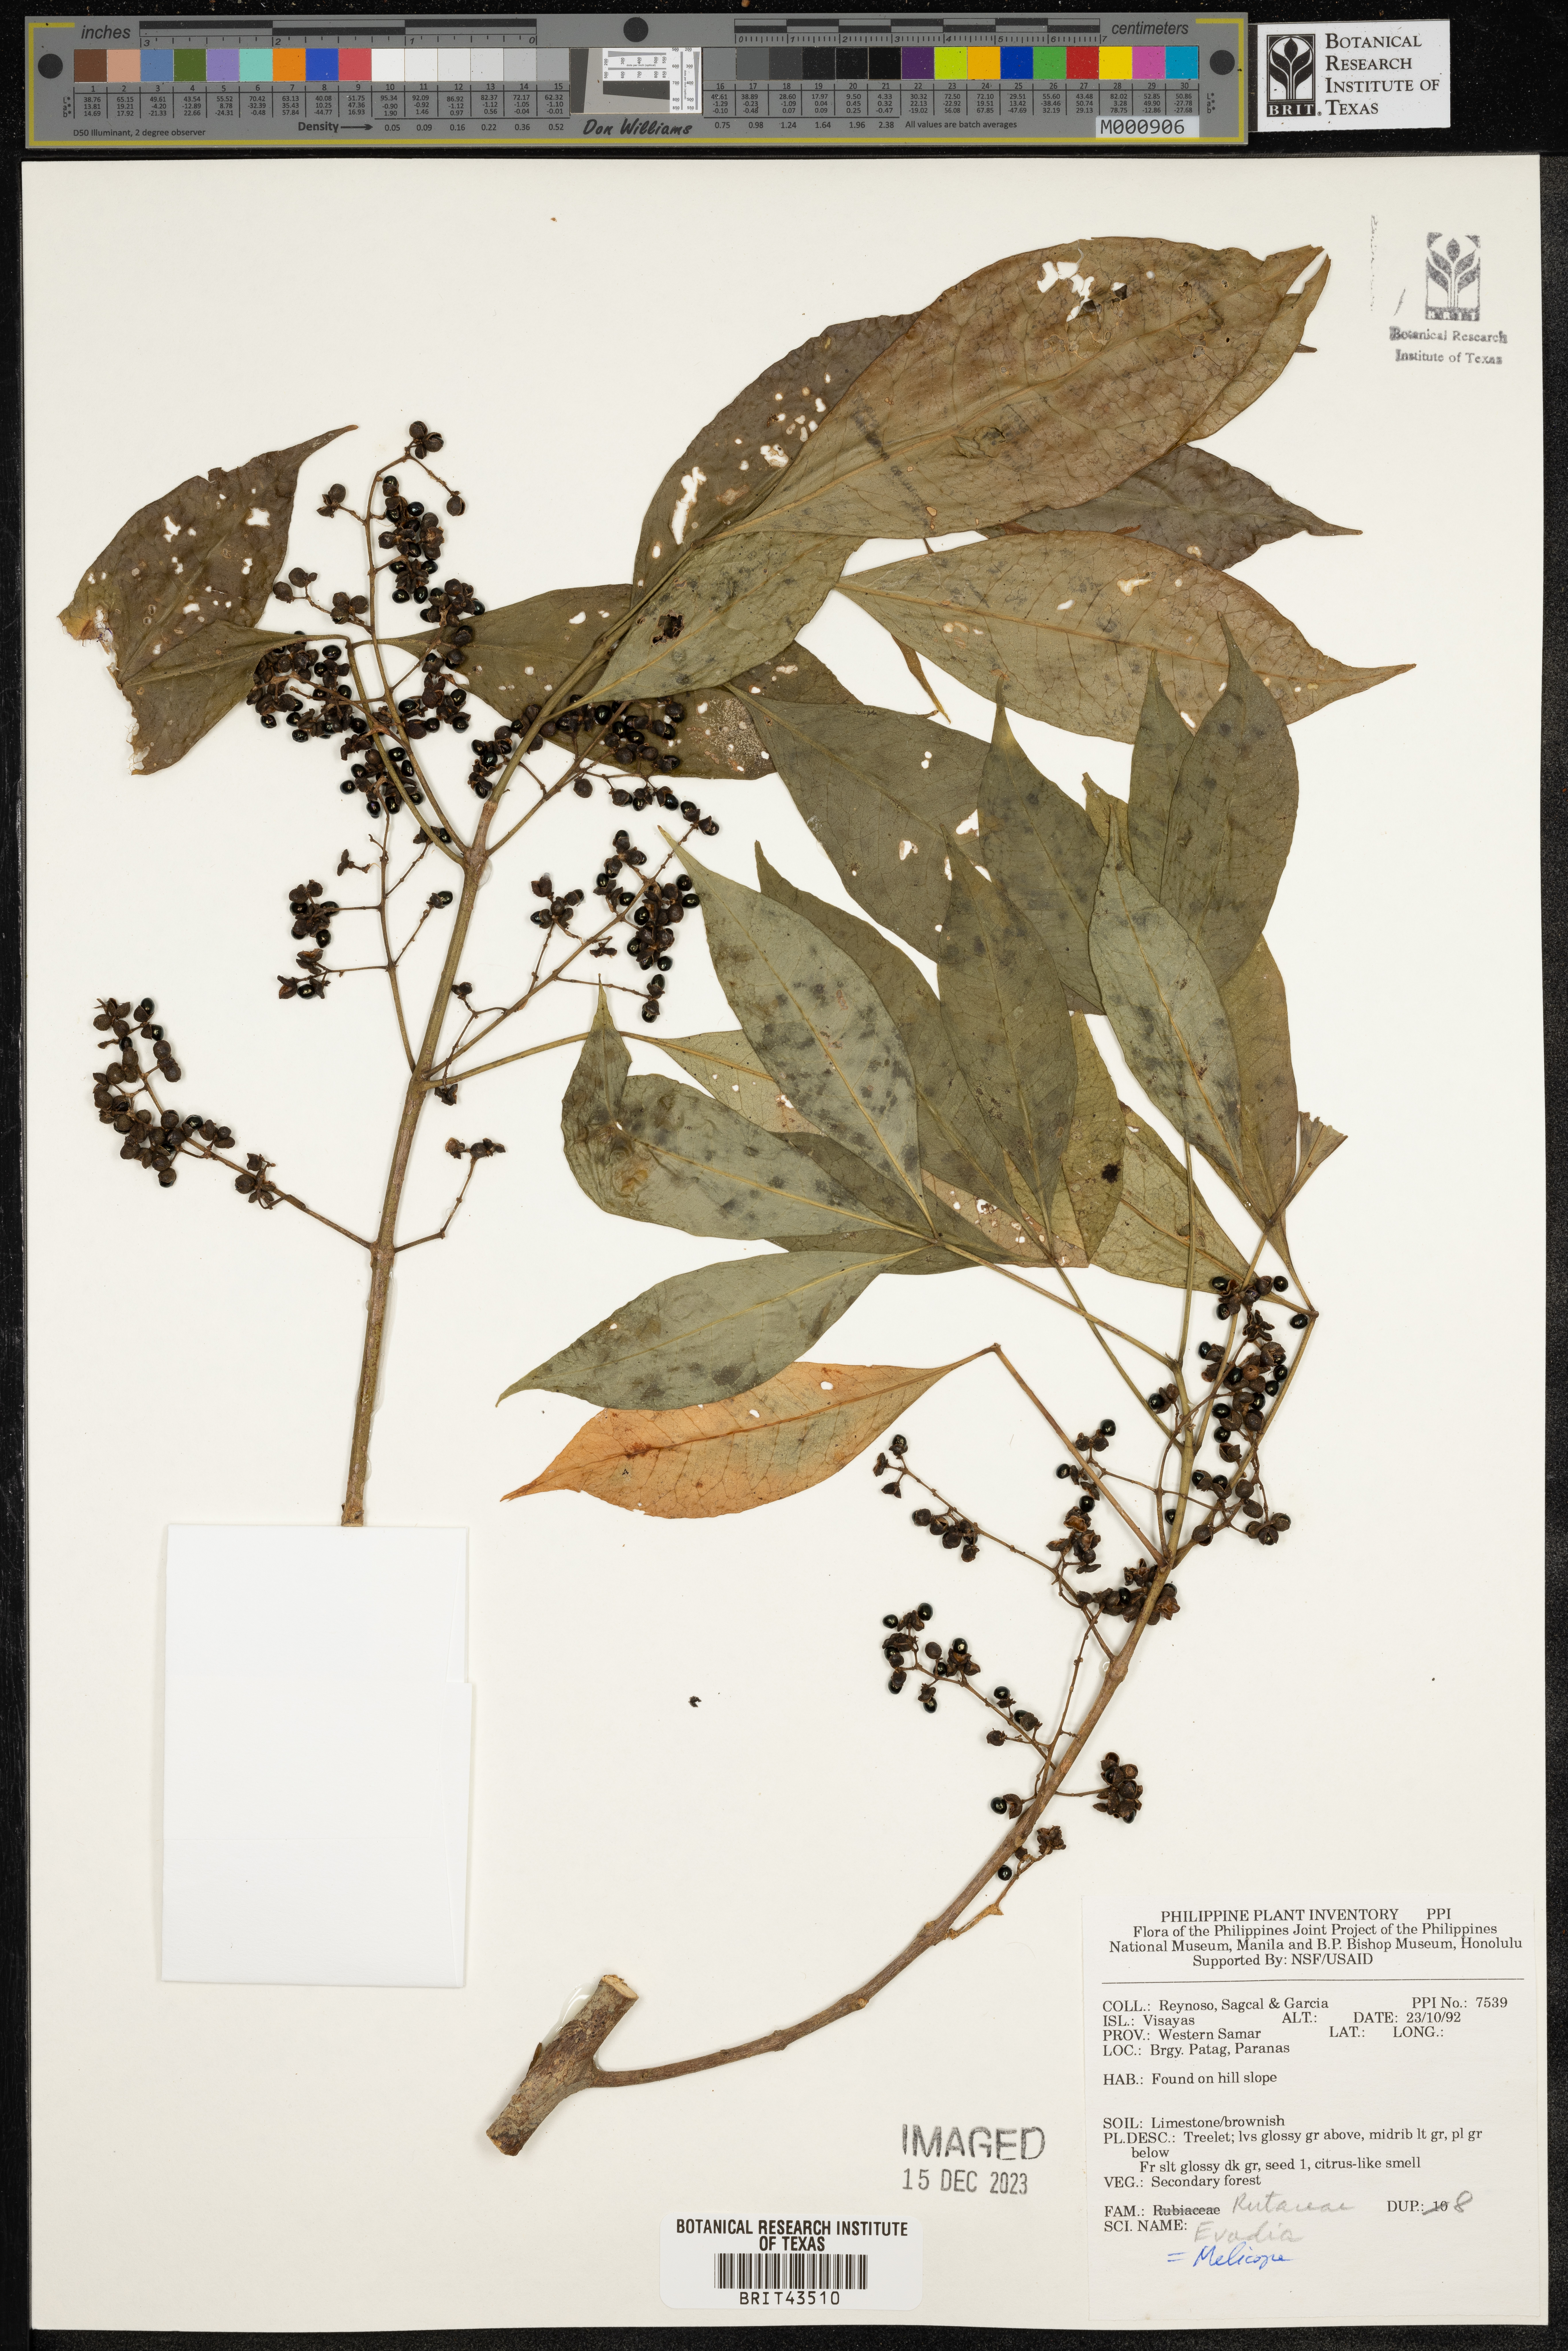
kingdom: Plantae
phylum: Tracheophyta
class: Magnoliopsida
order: Sapindales
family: Rutaceae
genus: Melicope
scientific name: Melicope
